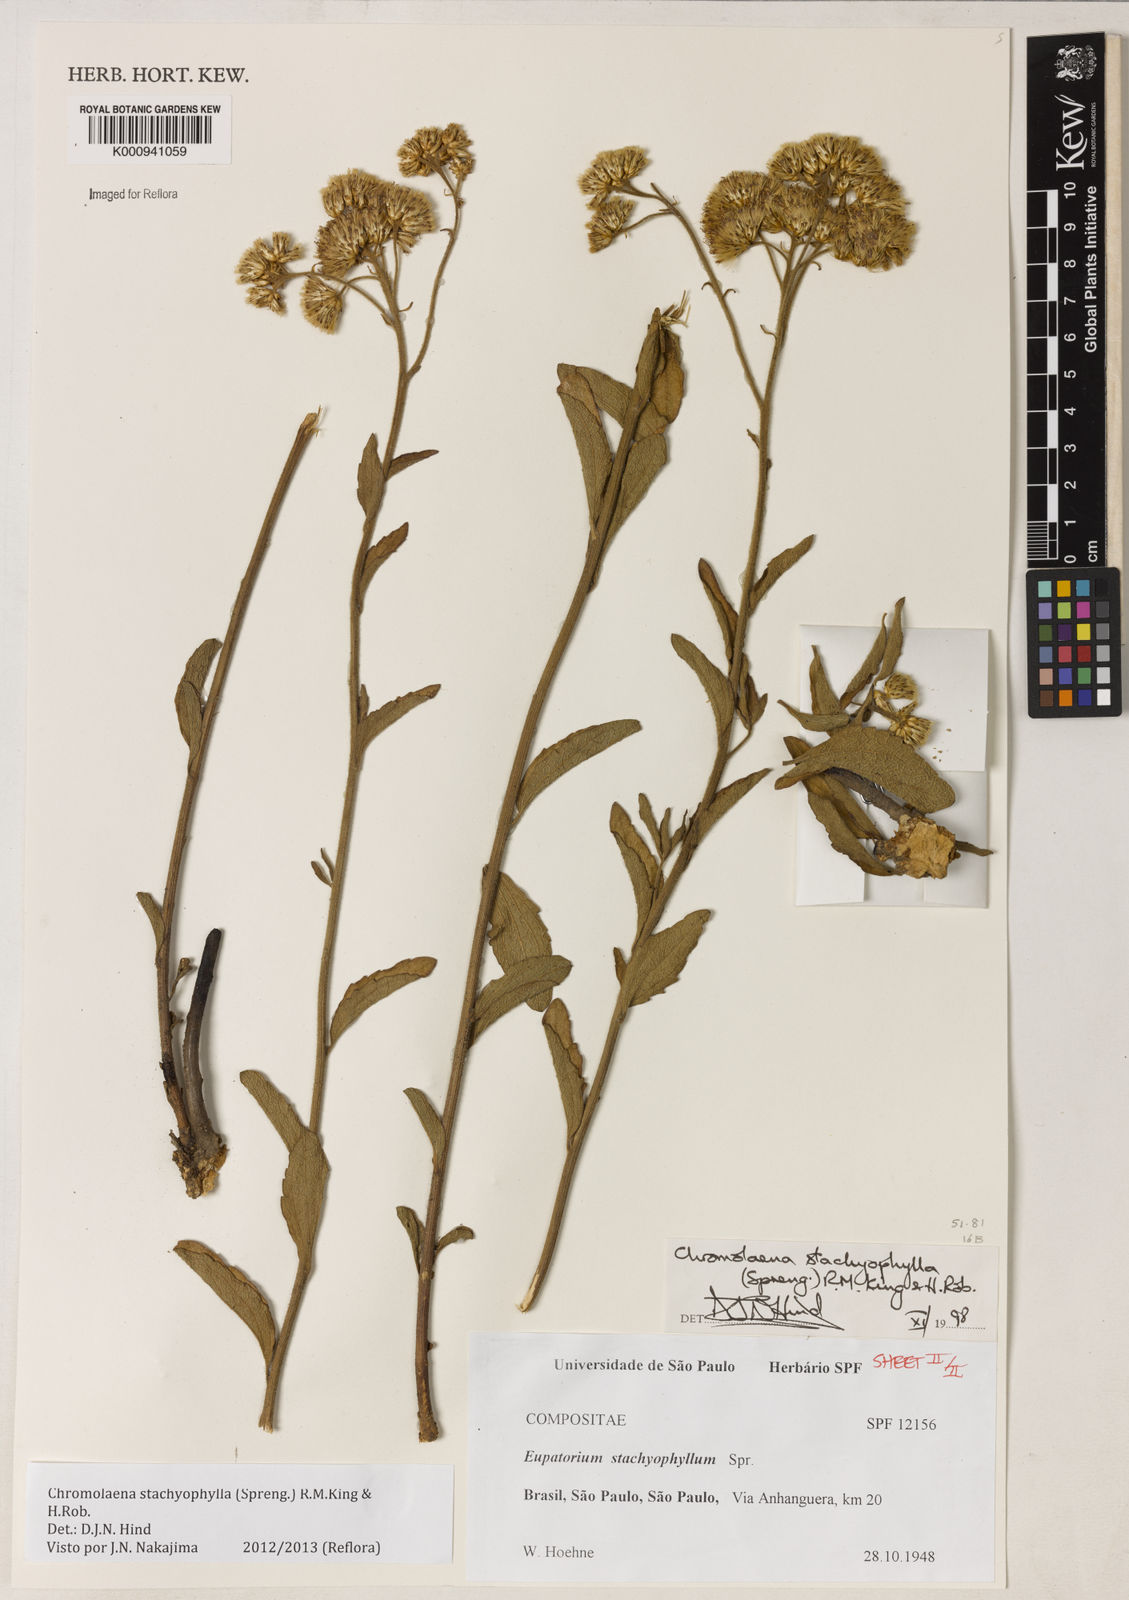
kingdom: Plantae
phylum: Tracheophyta
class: Magnoliopsida
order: Asterales
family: Asteraceae
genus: Chromolaena
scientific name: Chromolaena stachyophylla
